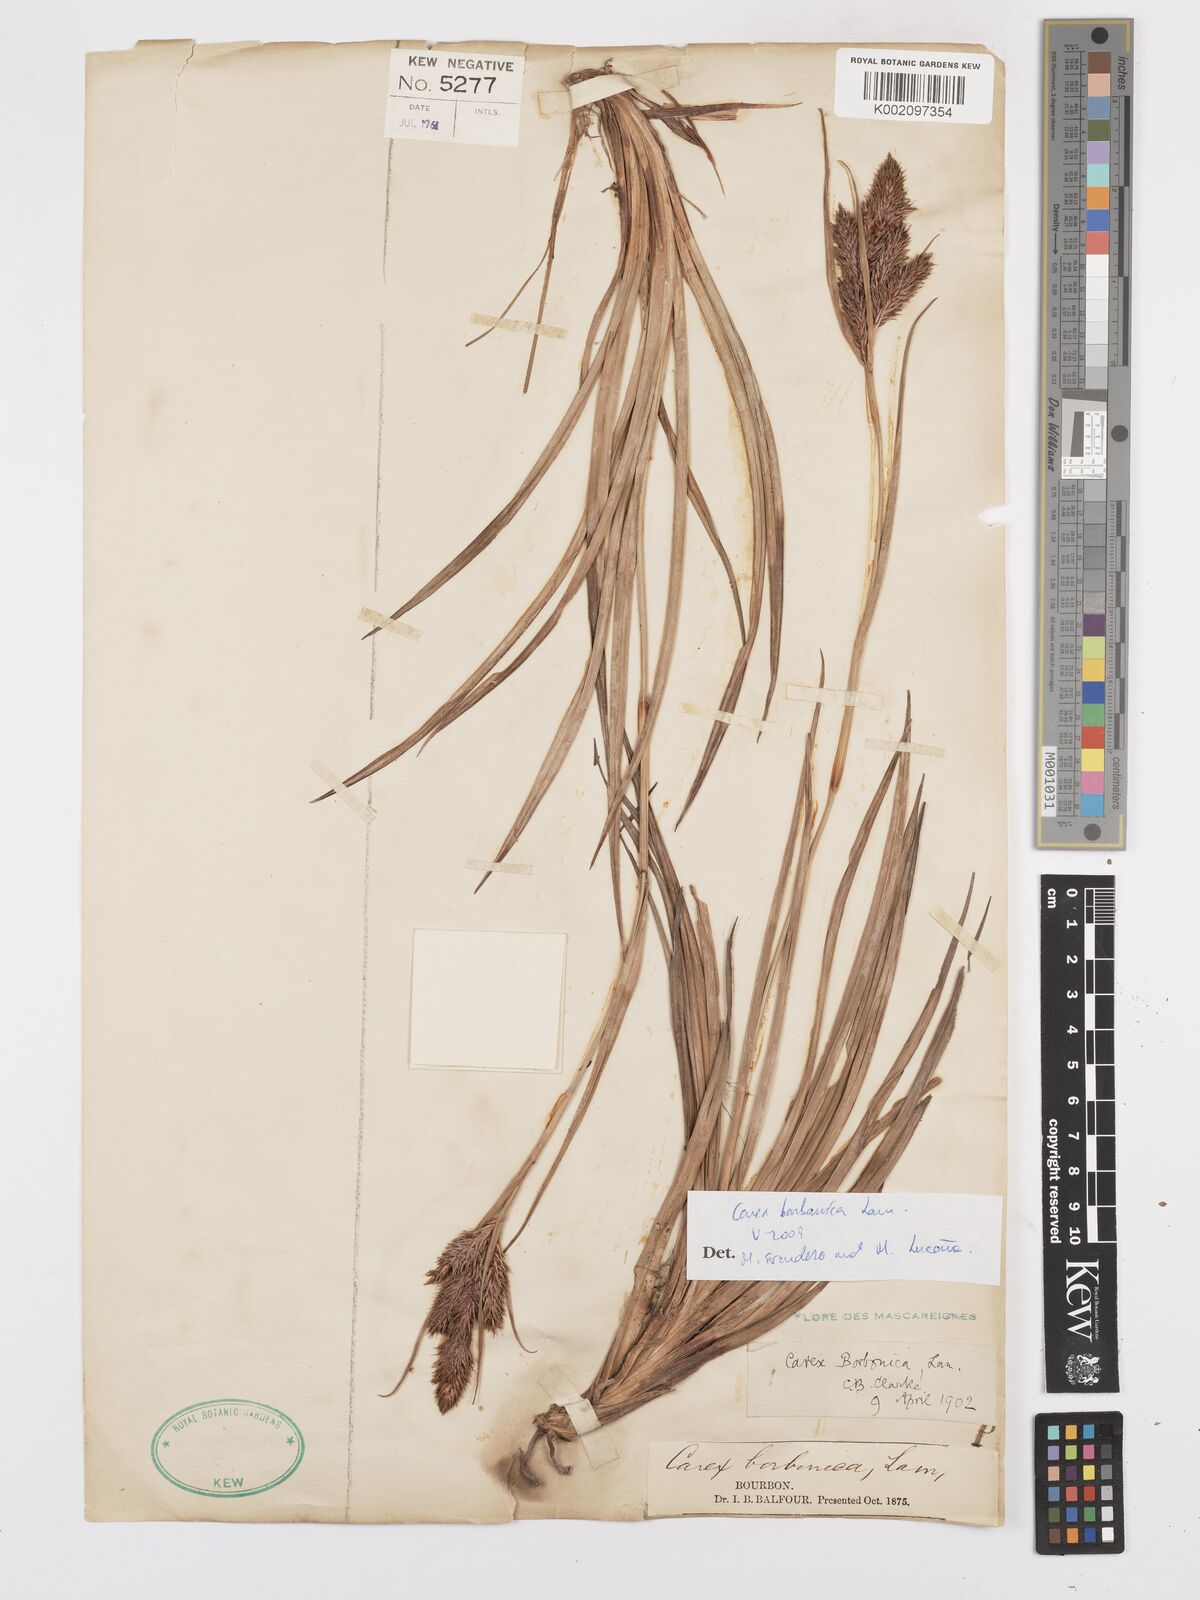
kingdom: Plantae
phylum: Tracheophyta
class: Liliopsida
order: Poales
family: Cyperaceae
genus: Carex
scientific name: Carex borbonica
